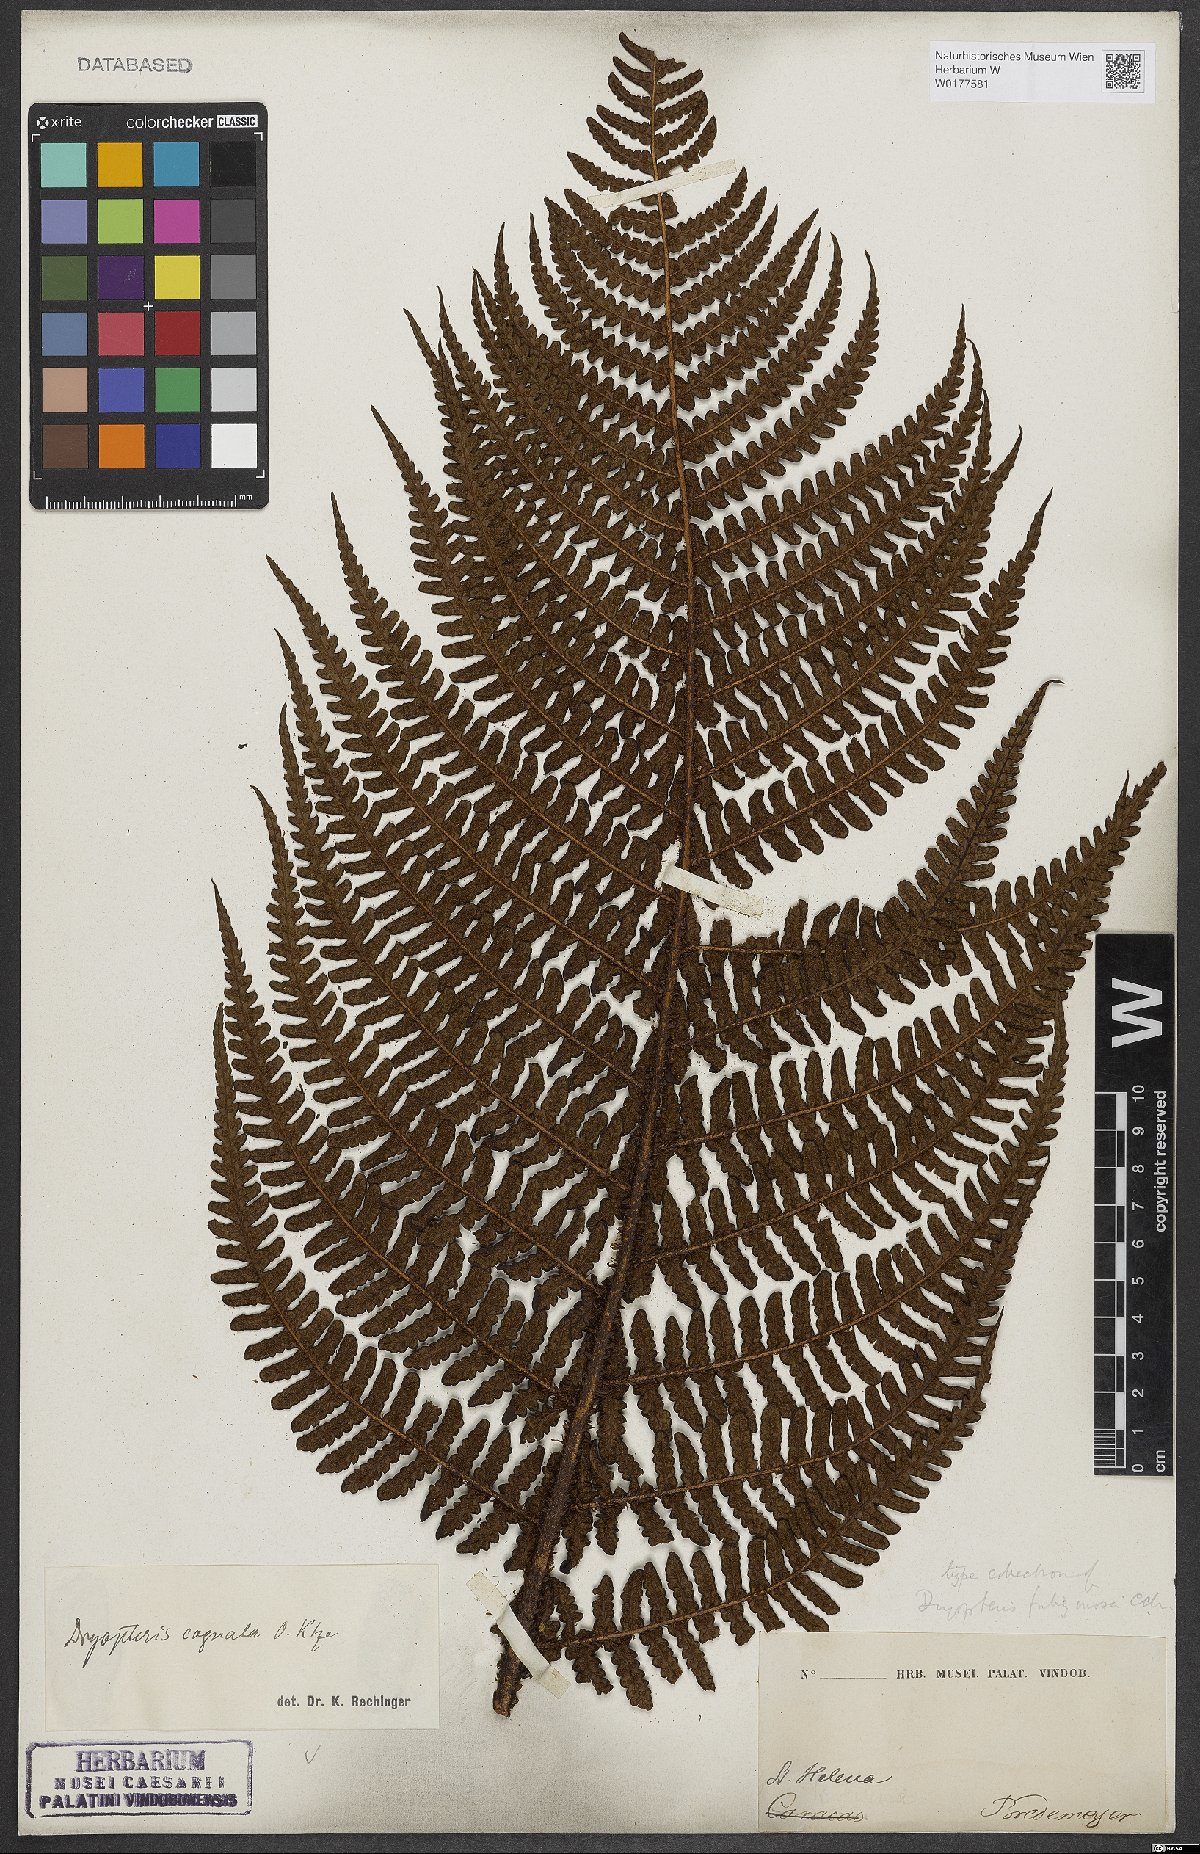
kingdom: Plantae
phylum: Tracheophyta
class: Polypodiopsida
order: Polypodiales
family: Dryopteridaceae
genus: Dryopteris
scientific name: Dryopteris cognata
